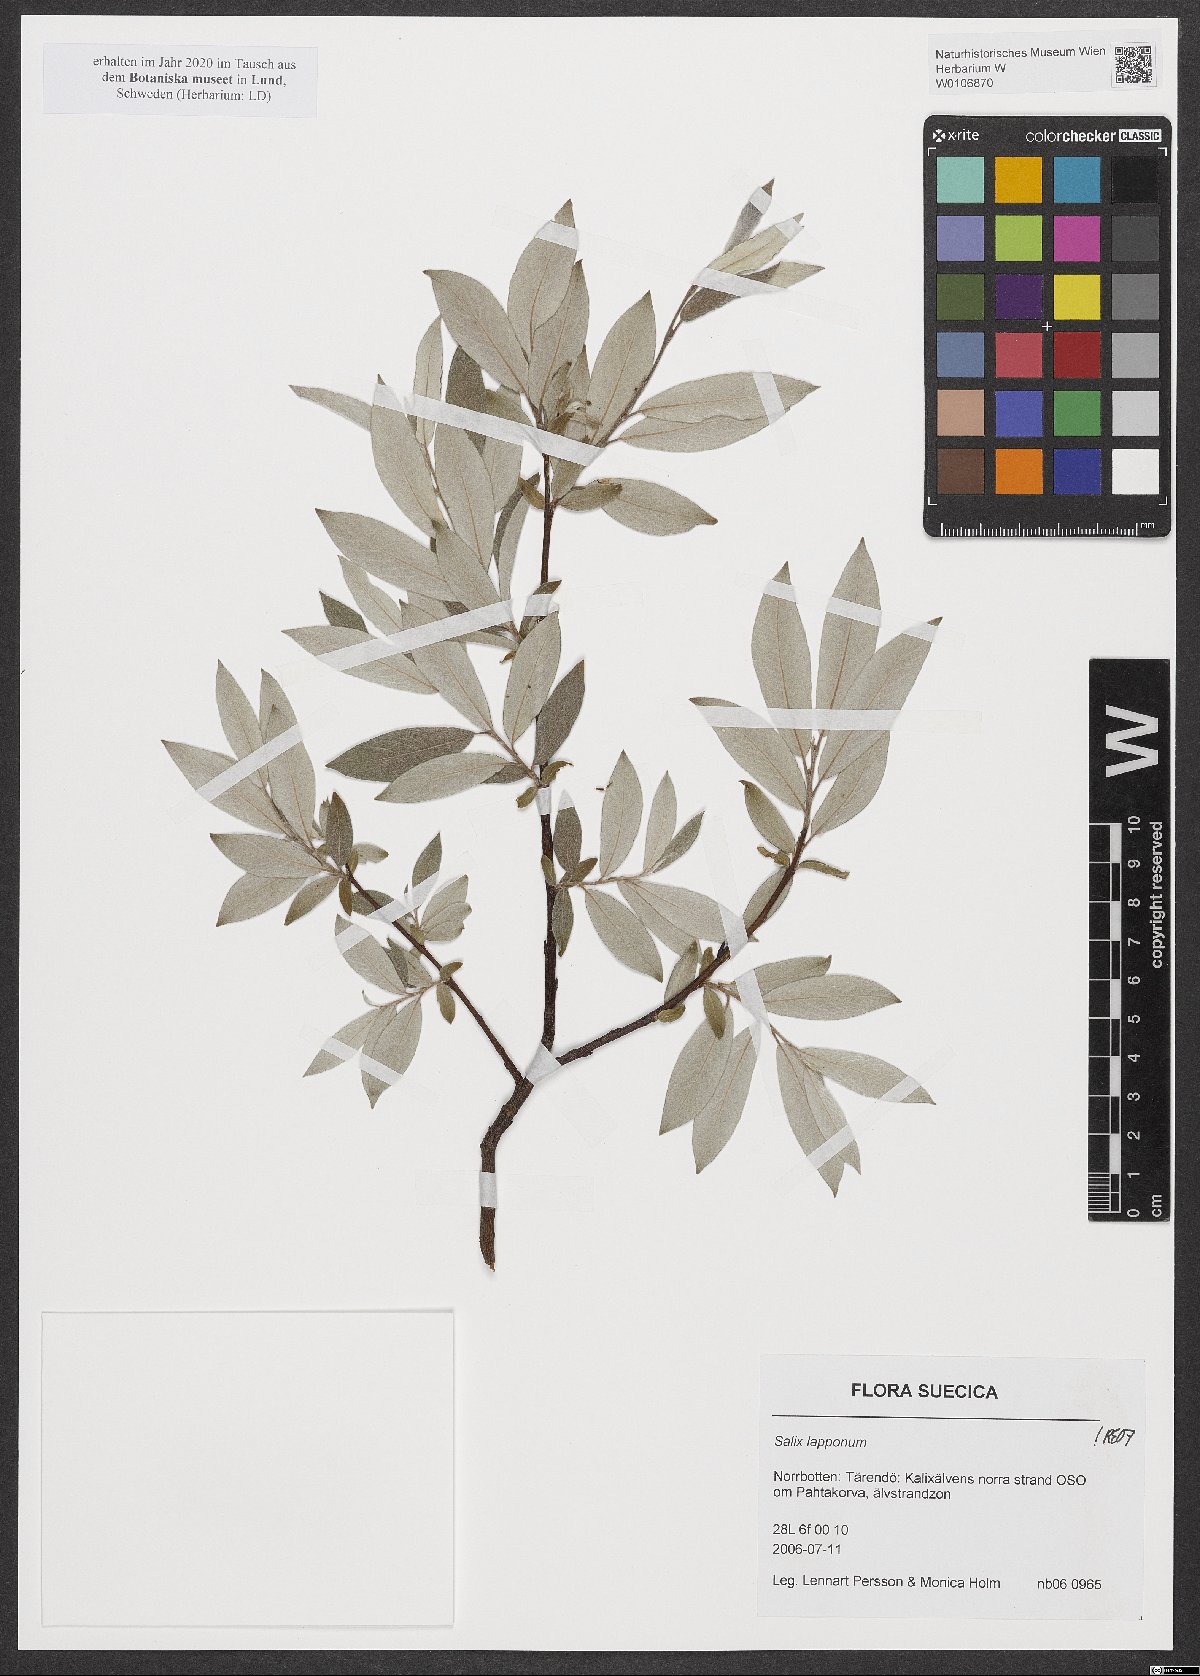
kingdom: Plantae
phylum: Tracheophyta
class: Magnoliopsida
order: Malpighiales
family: Salicaceae
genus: Salix
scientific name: Salix lapponum
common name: Downy willow
